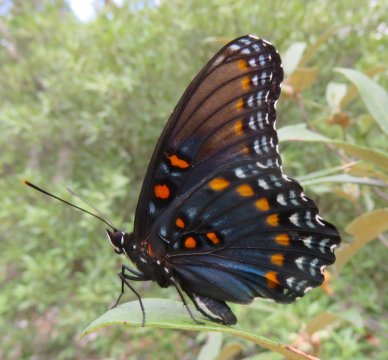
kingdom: Animalia
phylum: Arthropoda
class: Insecta
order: Lepidoptera
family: Nymphalidae
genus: Limenitis
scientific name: Limenitis arthemis
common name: Red-spotted Admiral
